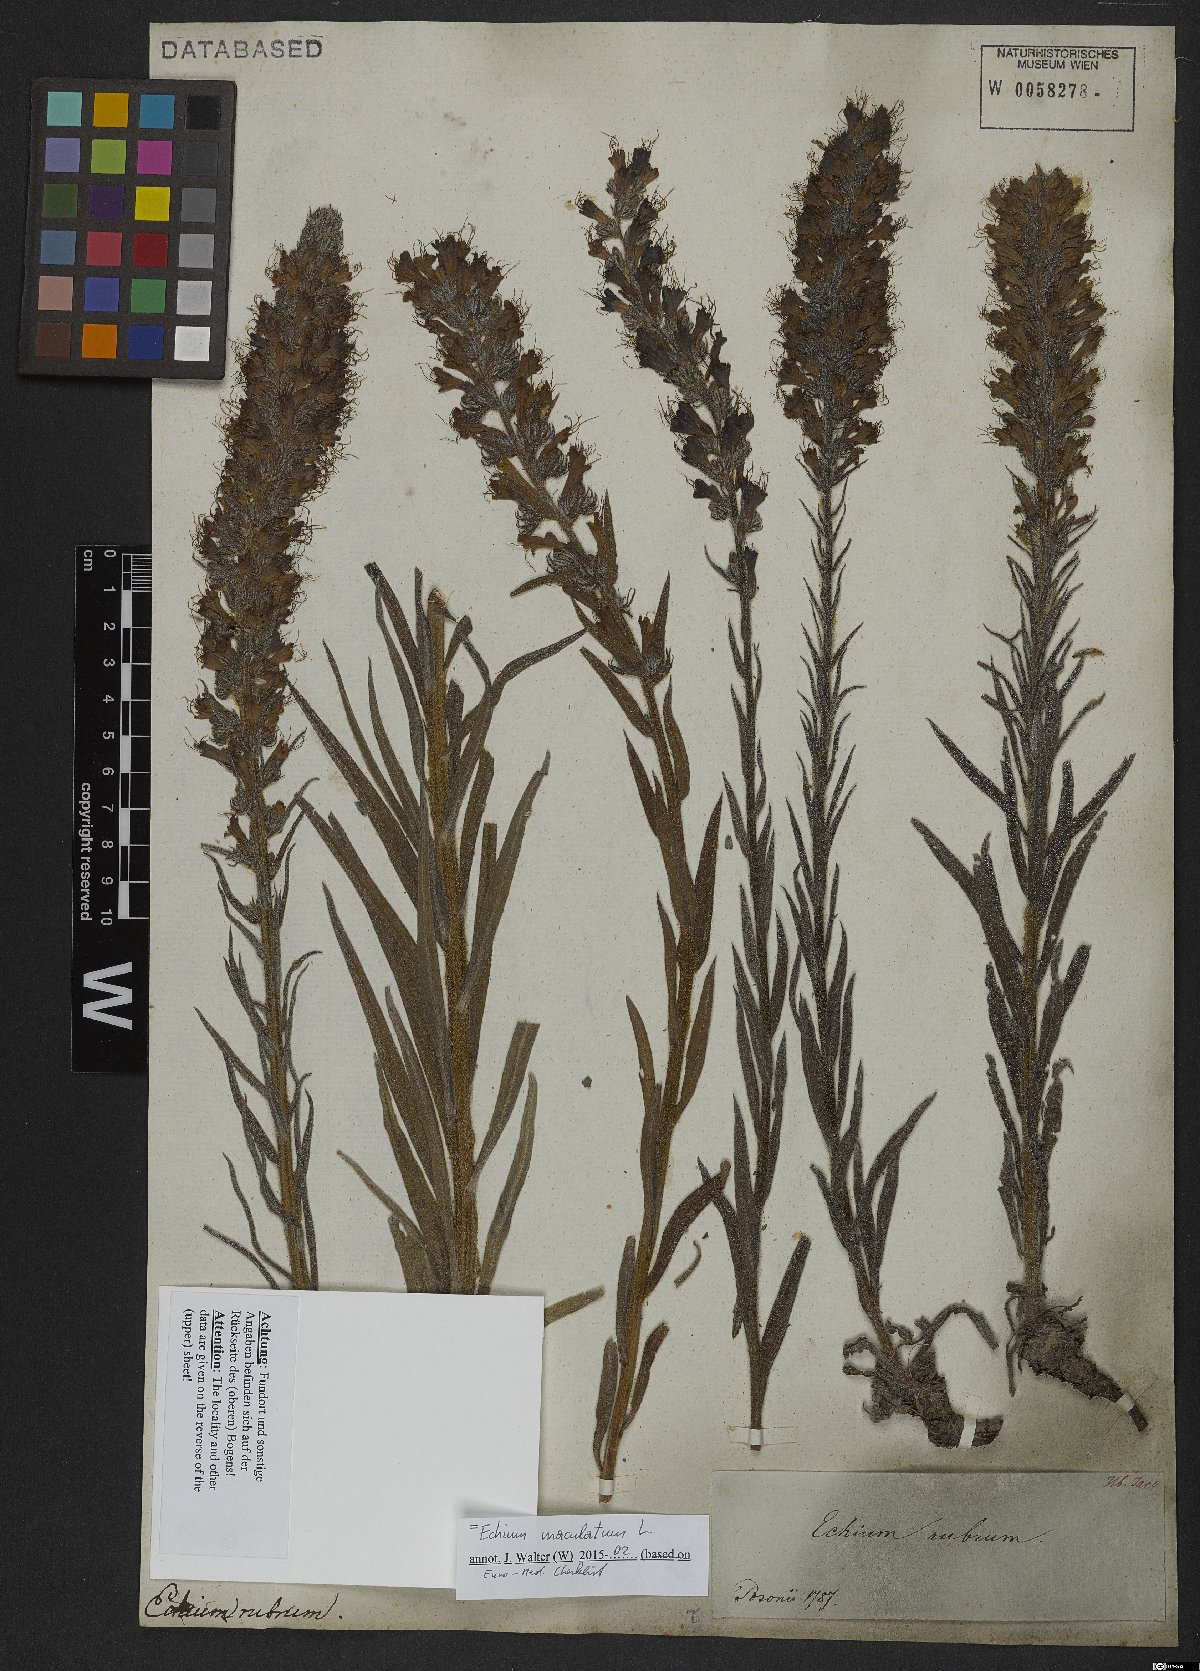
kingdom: Plantae
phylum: Tracheophyta
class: Magnoliopsida
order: Boraginales
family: Boraginaceae
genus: Pontechium
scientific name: Pontechium maculatum
